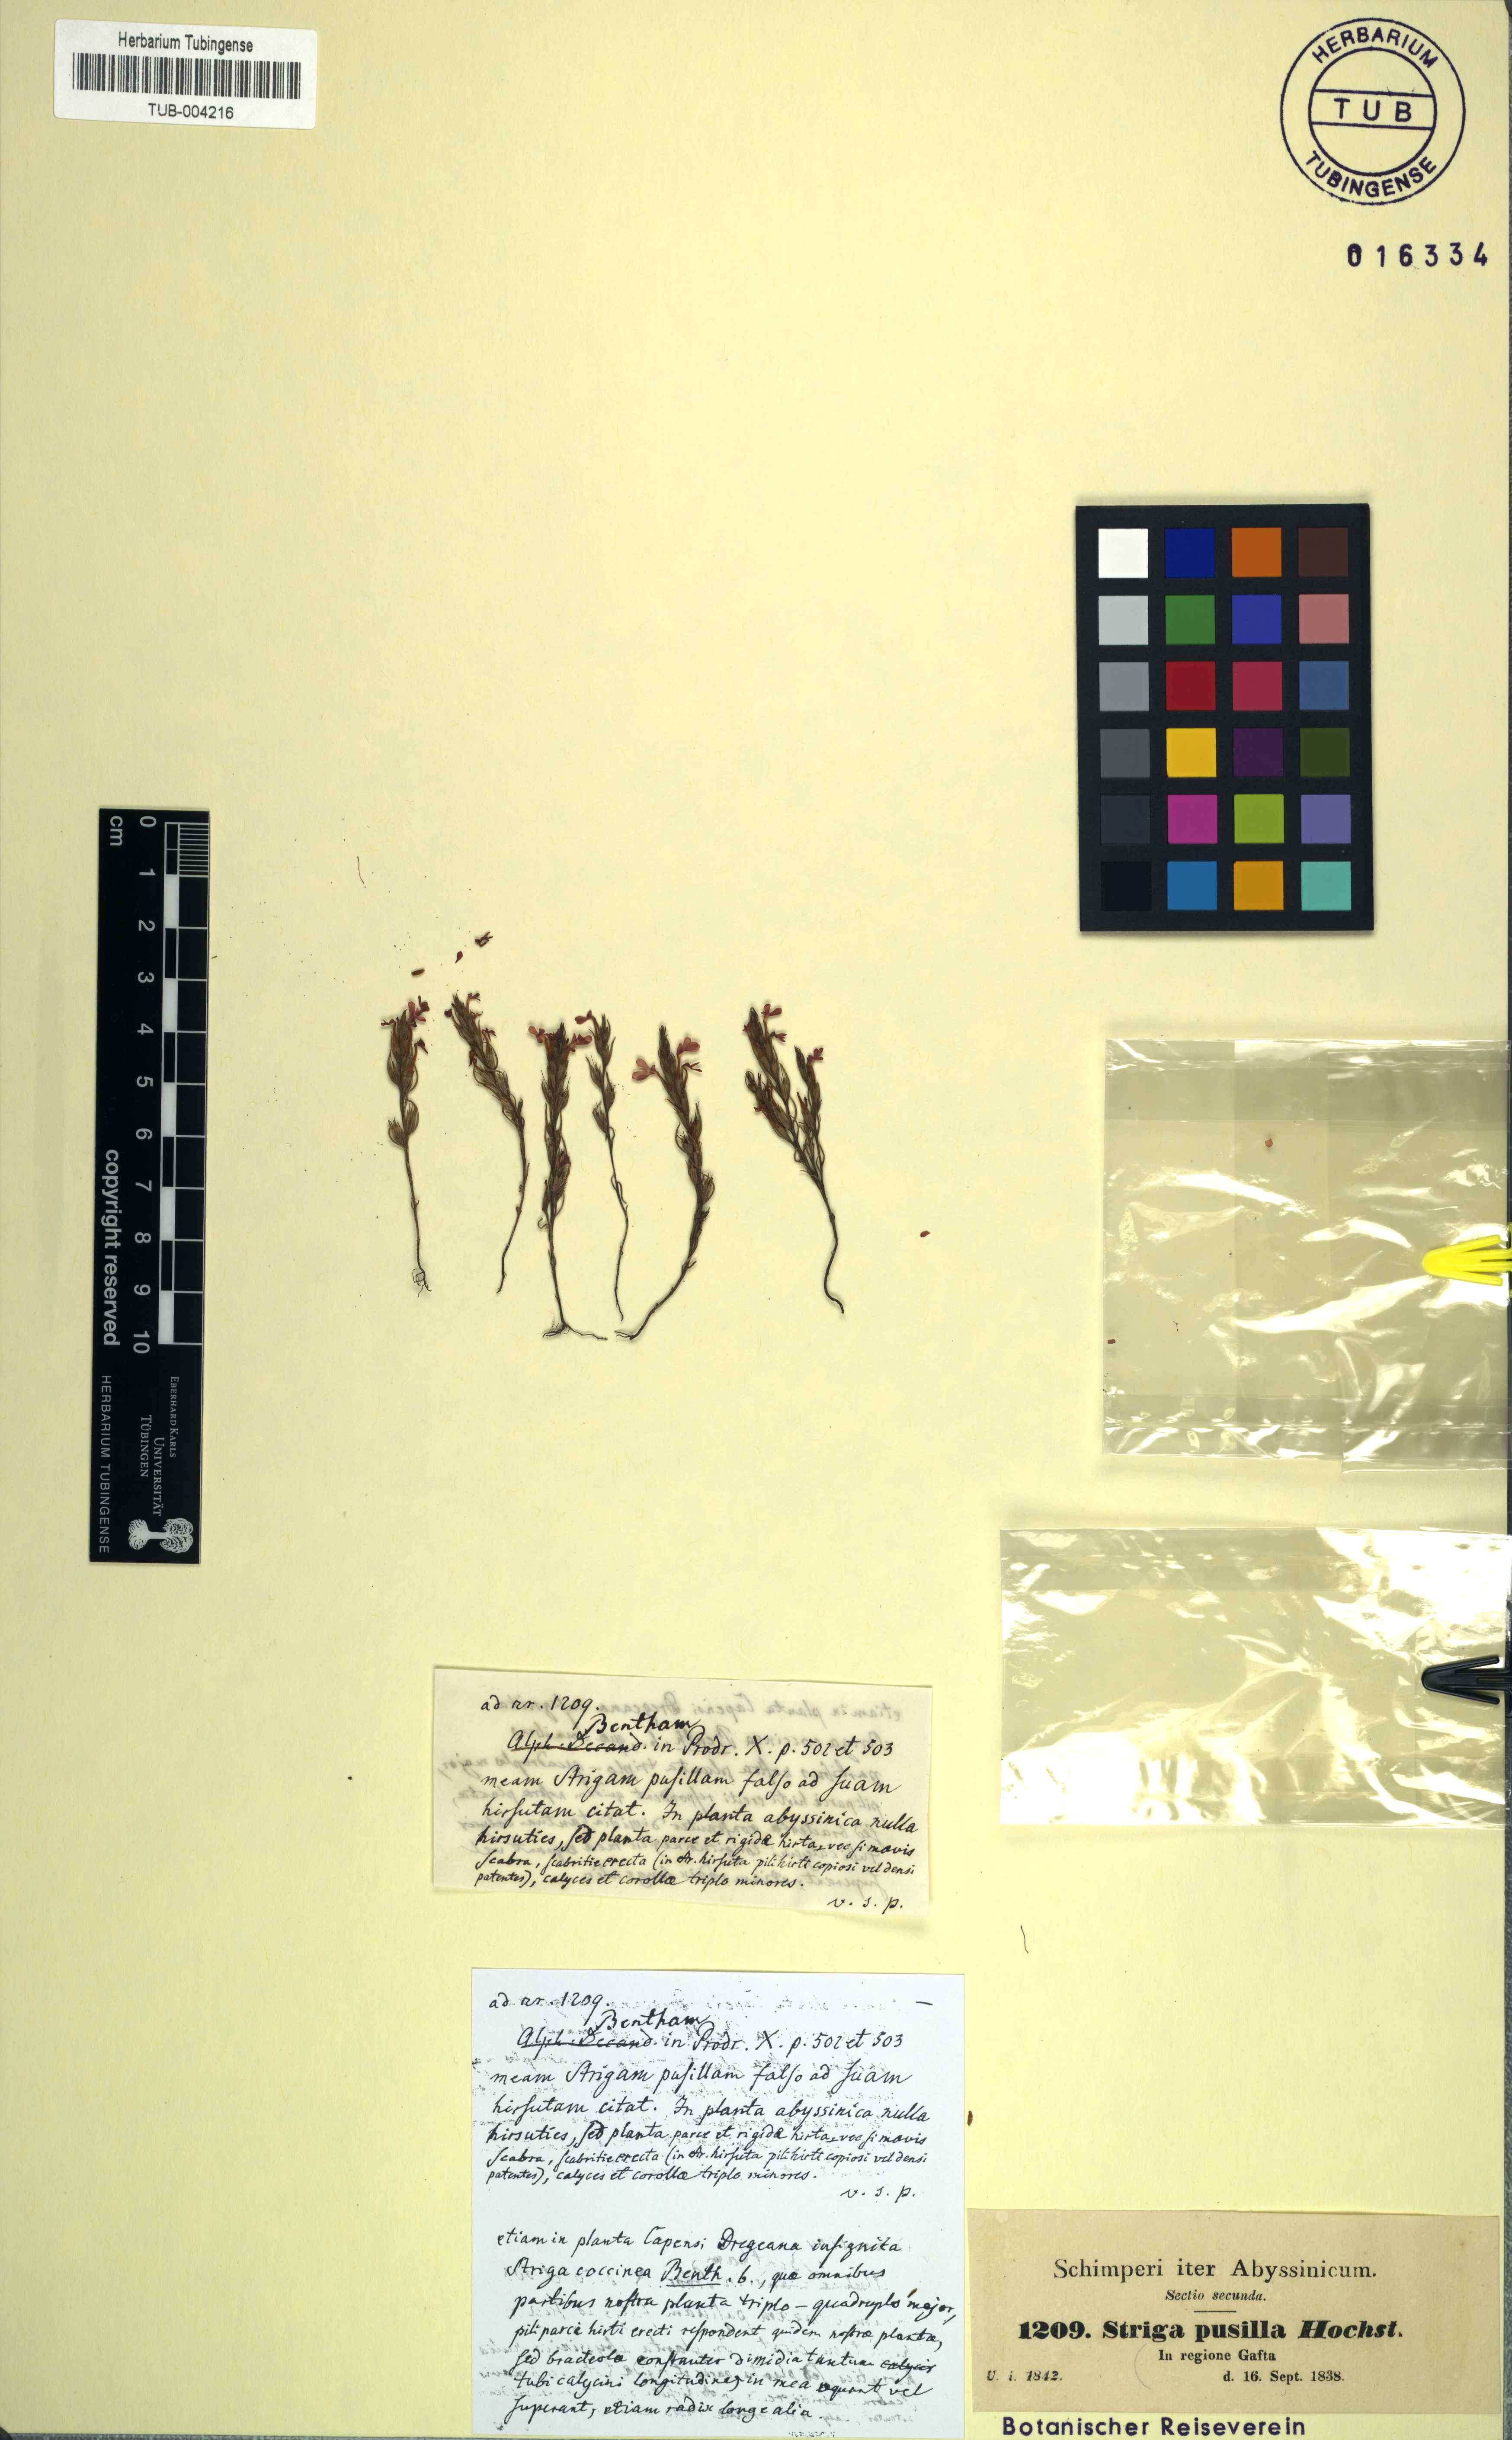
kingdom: Plantae
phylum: Tracheophyta
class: Magnoliopsida
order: Lamiales
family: Orobanchaceae
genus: Striga
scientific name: Striga lutea
